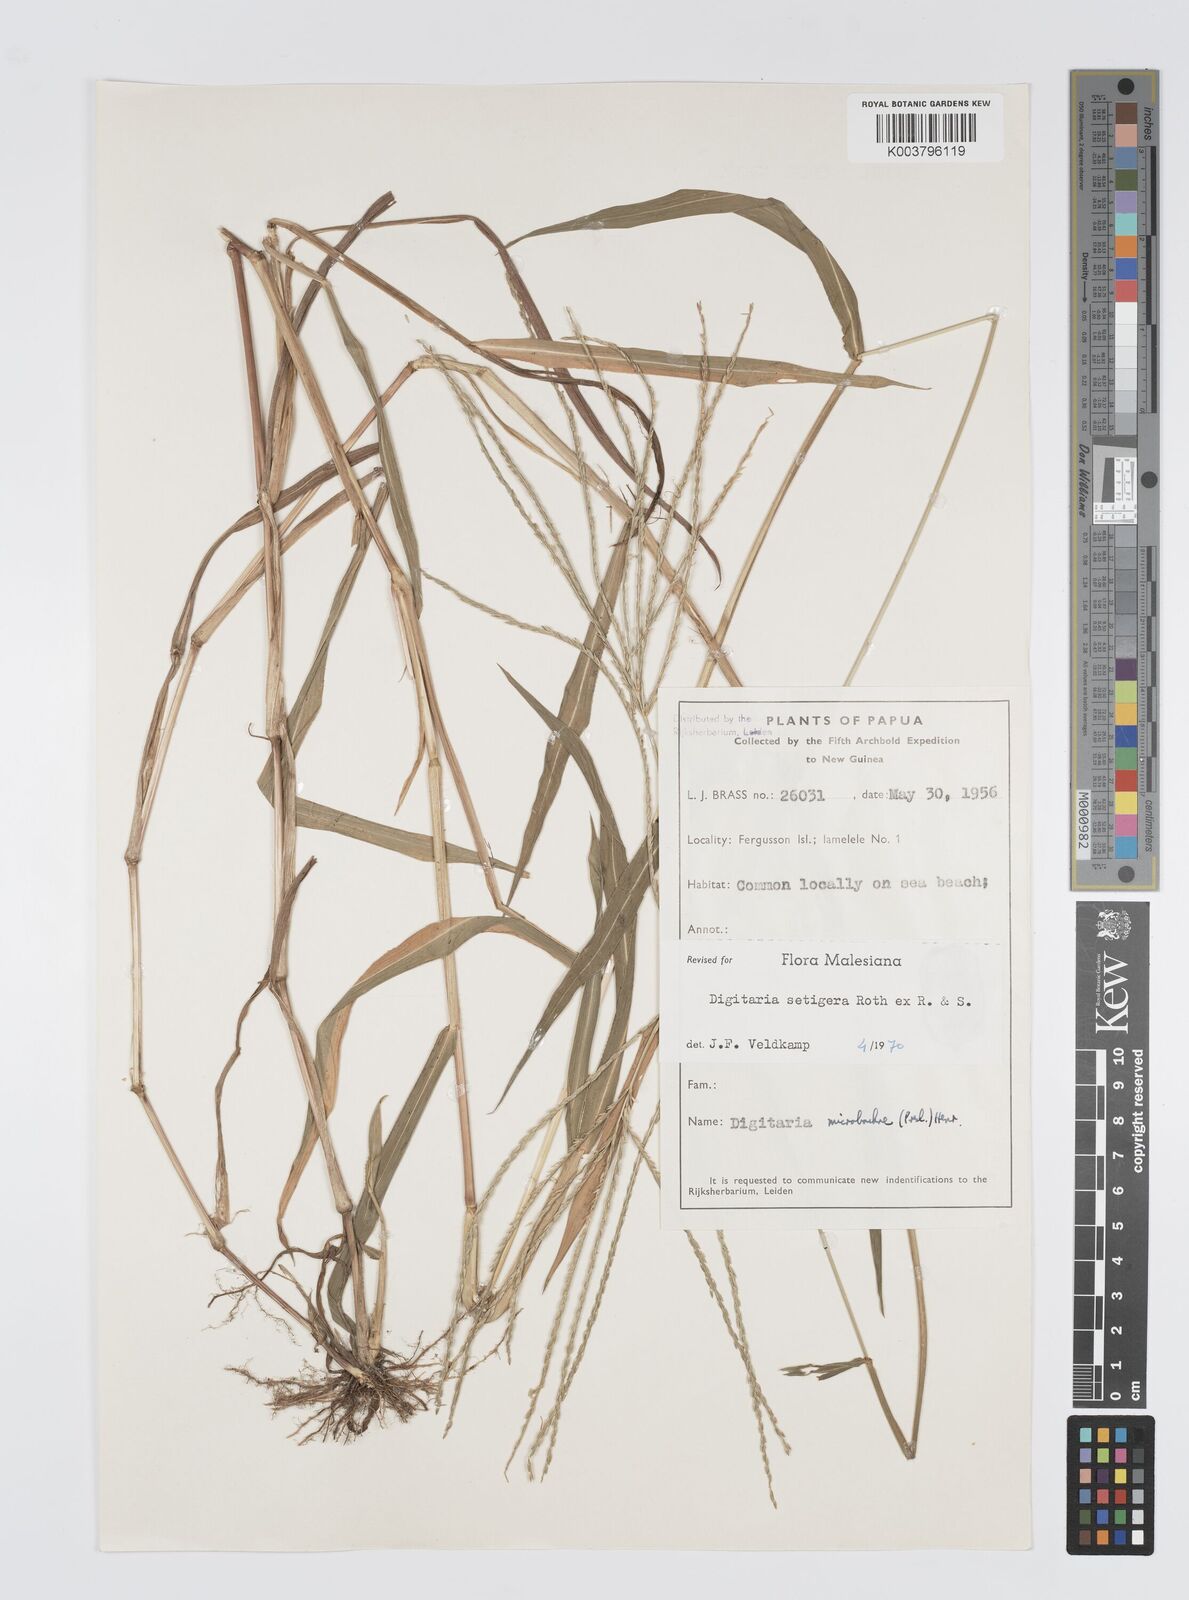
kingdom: Plantae
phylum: Tracheophyta
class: Liliopsida
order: Poales
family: Poaceae
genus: Digitaria
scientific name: Digitaria setigera
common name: East indian crabgrass
